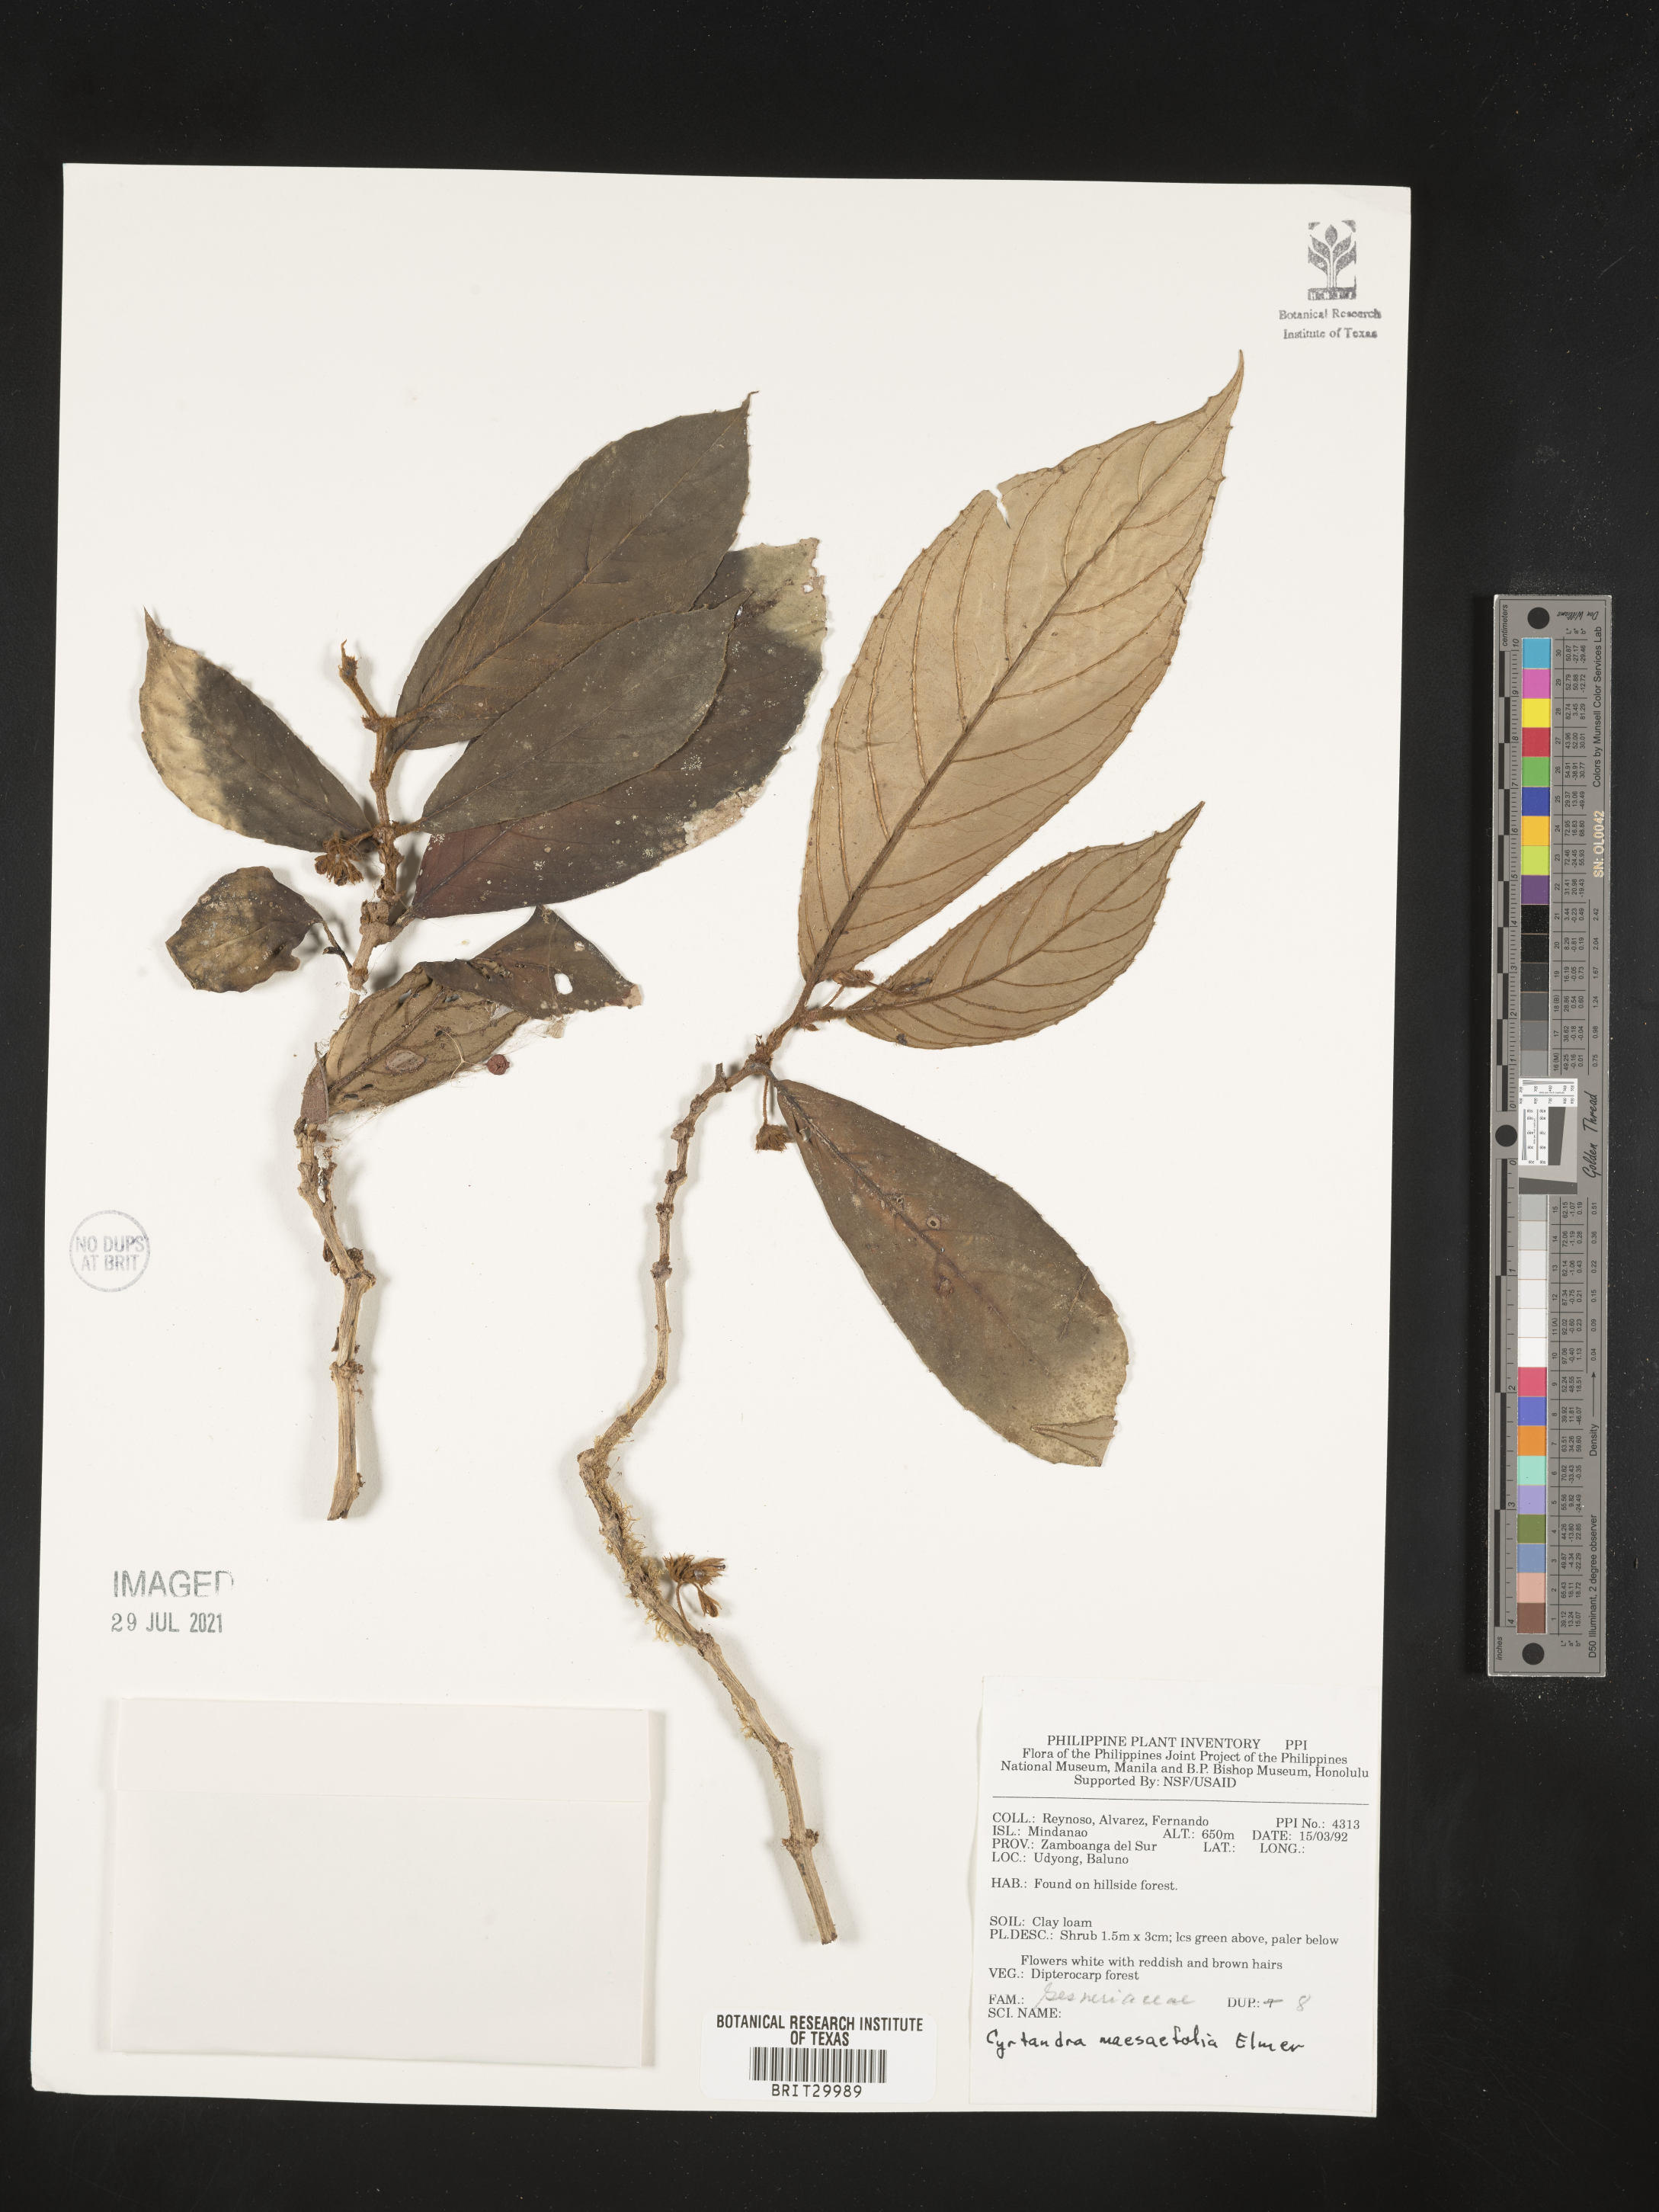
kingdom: Plantae
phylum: Tracheophyta
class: Magnoliopsida
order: Lamiales
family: Gesneriaceae
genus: Cyrtandra
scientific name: Cyrtandra maesifolia
